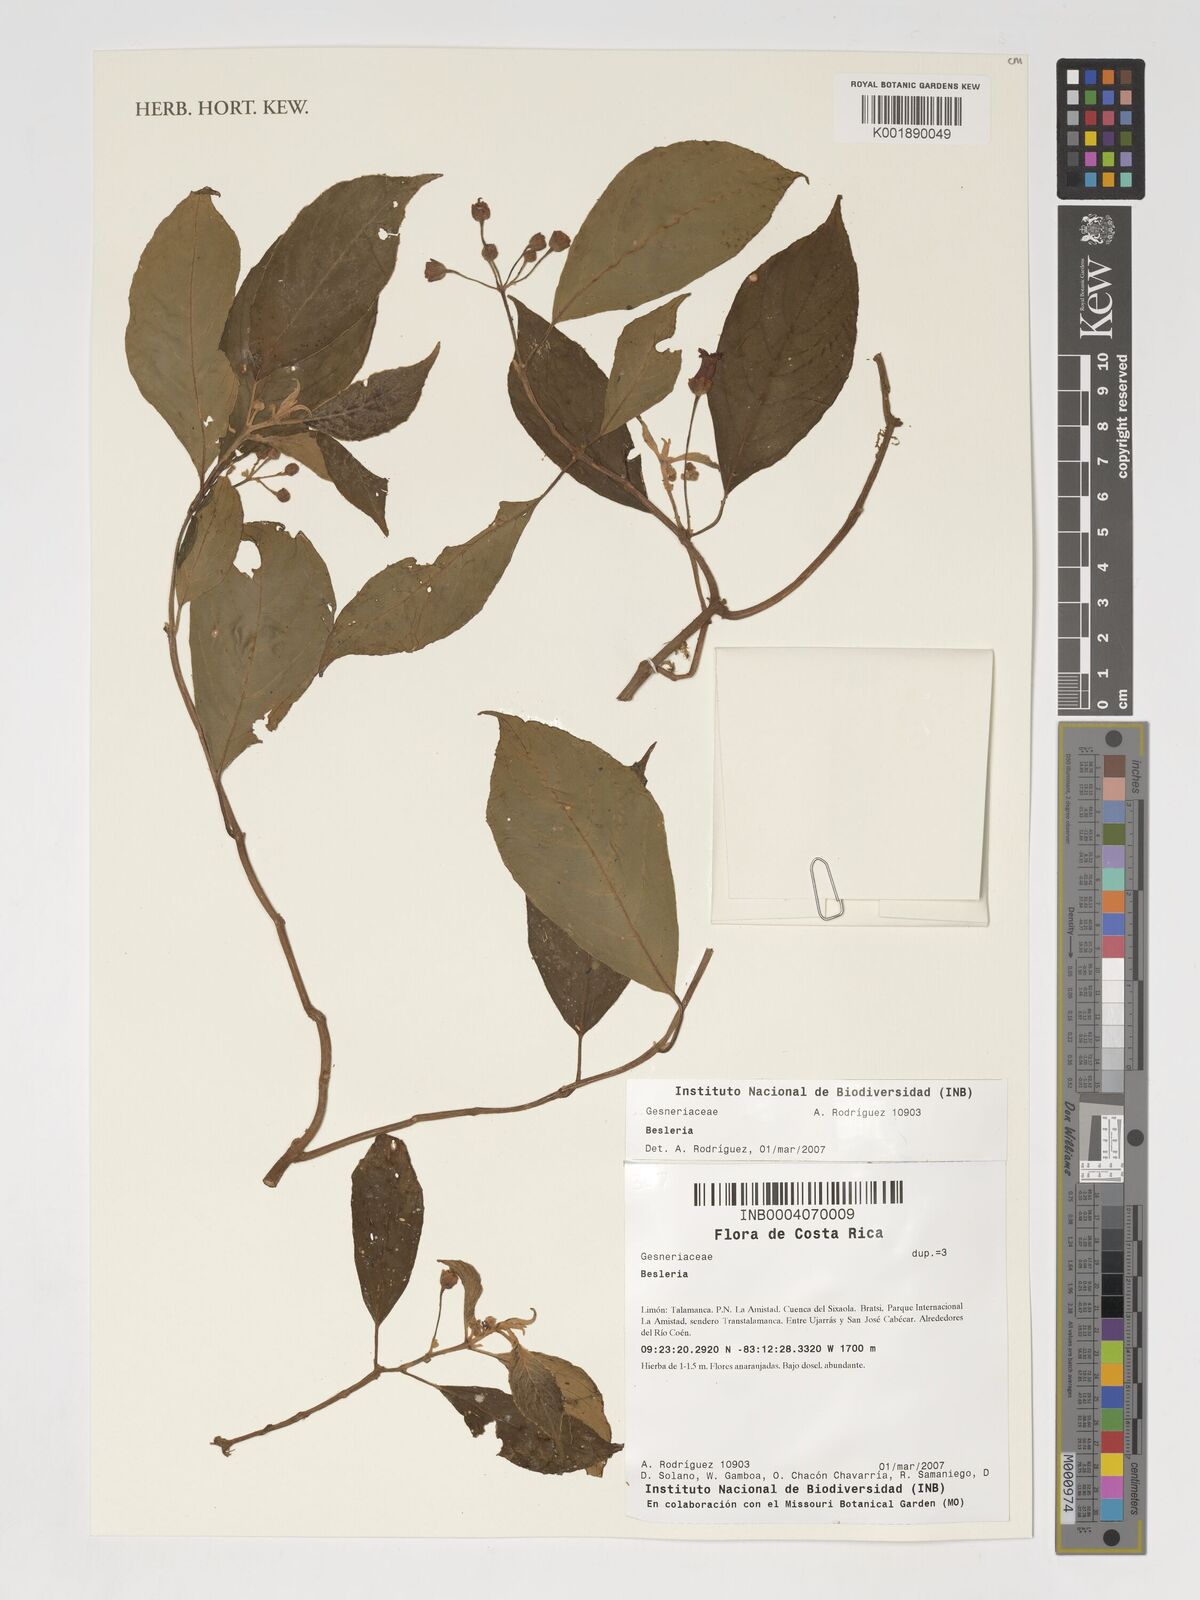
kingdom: Plantae
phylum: Tracheophyta
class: Magnoliopsida
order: Lamiales
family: Gesneriaceae
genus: Besleria
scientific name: Besleria
